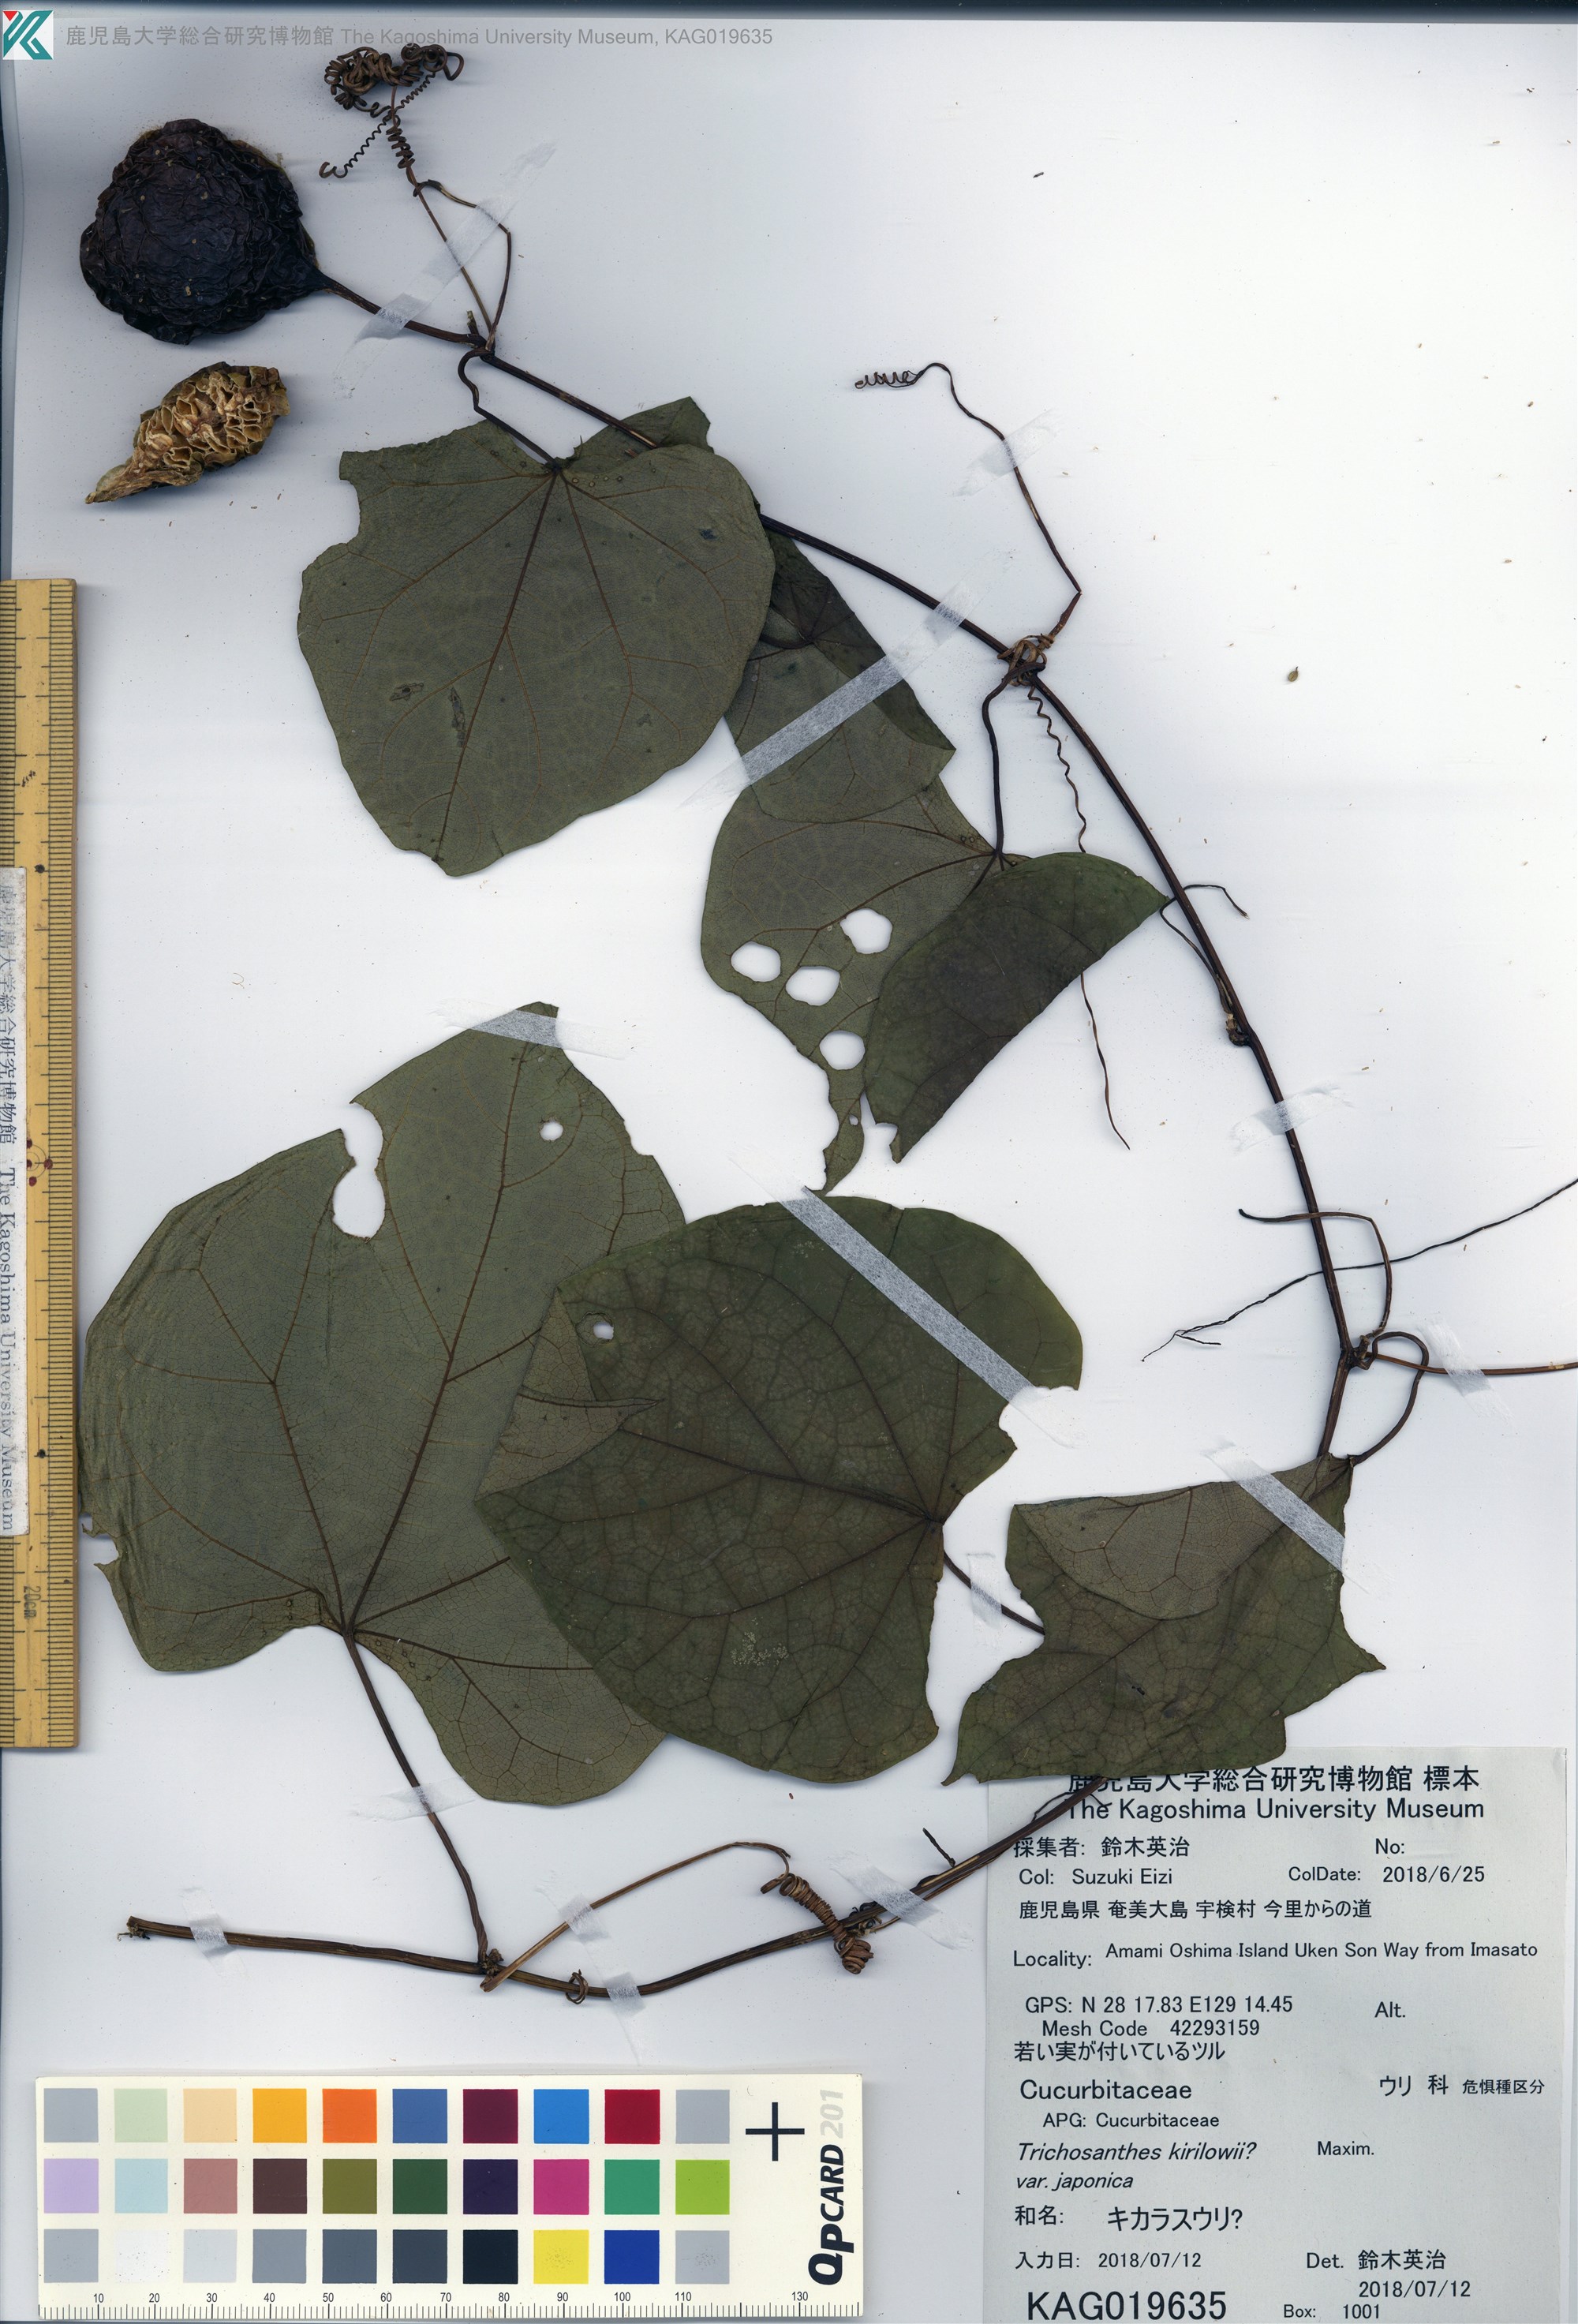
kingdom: Plantae
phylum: Tracheophyta
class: Magnoliopsida
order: Cucurbitales
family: Cucurbitaceae
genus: Trichosanthes
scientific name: Trichosanthes miyagii
